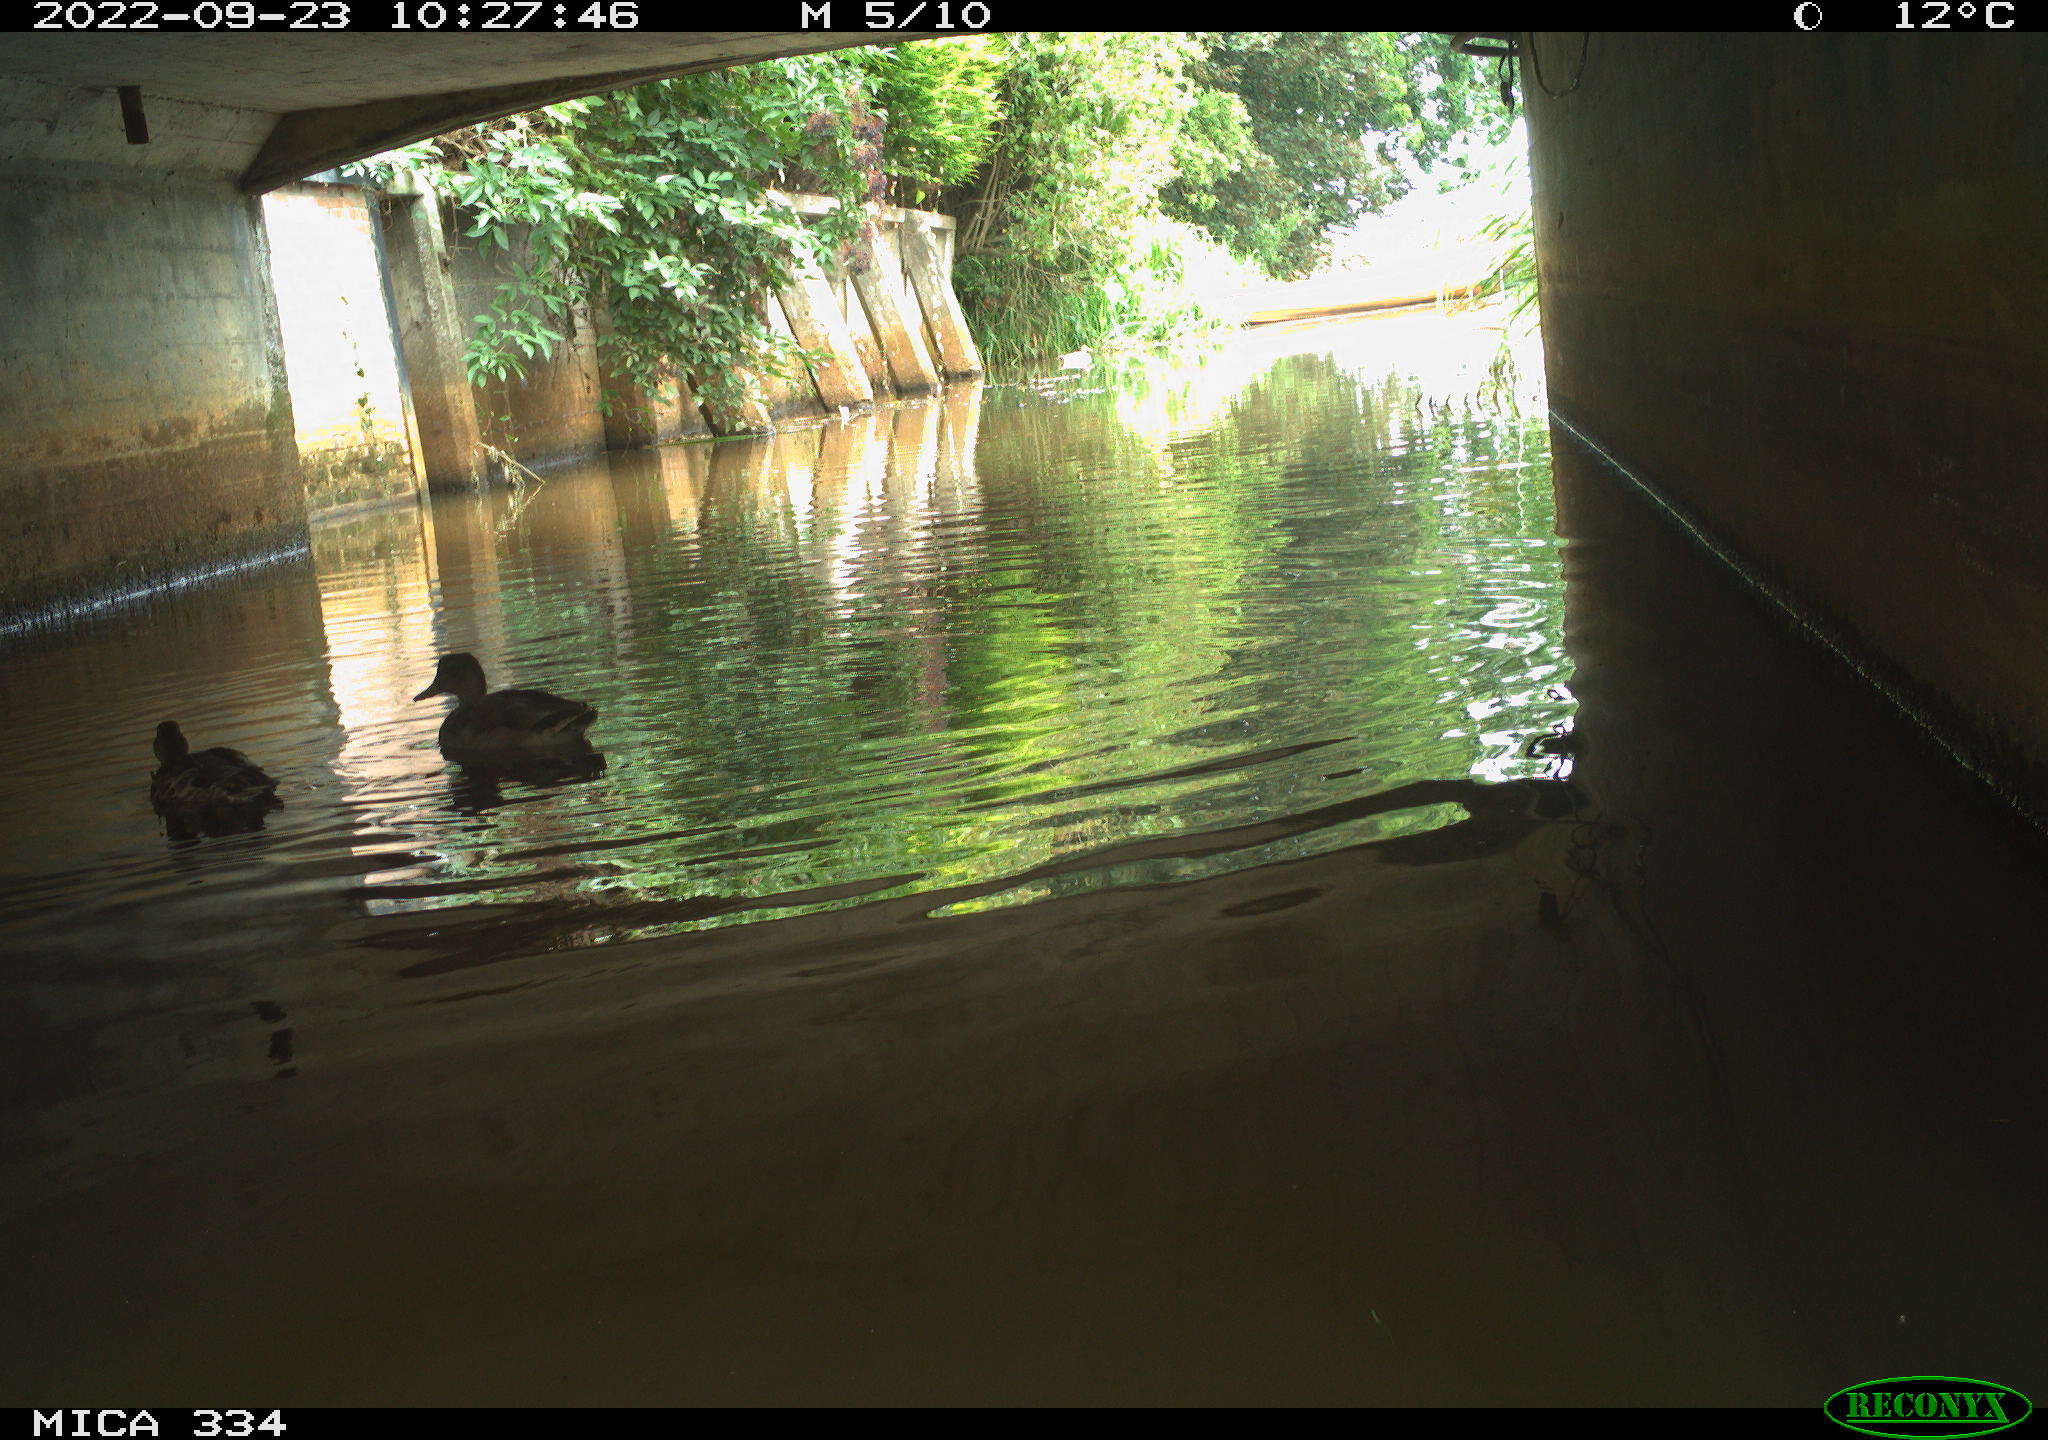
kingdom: Animalia
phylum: Chordata
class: Aves
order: Anseriformes
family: Anatidae
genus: Anas
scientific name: Anas platyrhynchos
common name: Mallard
